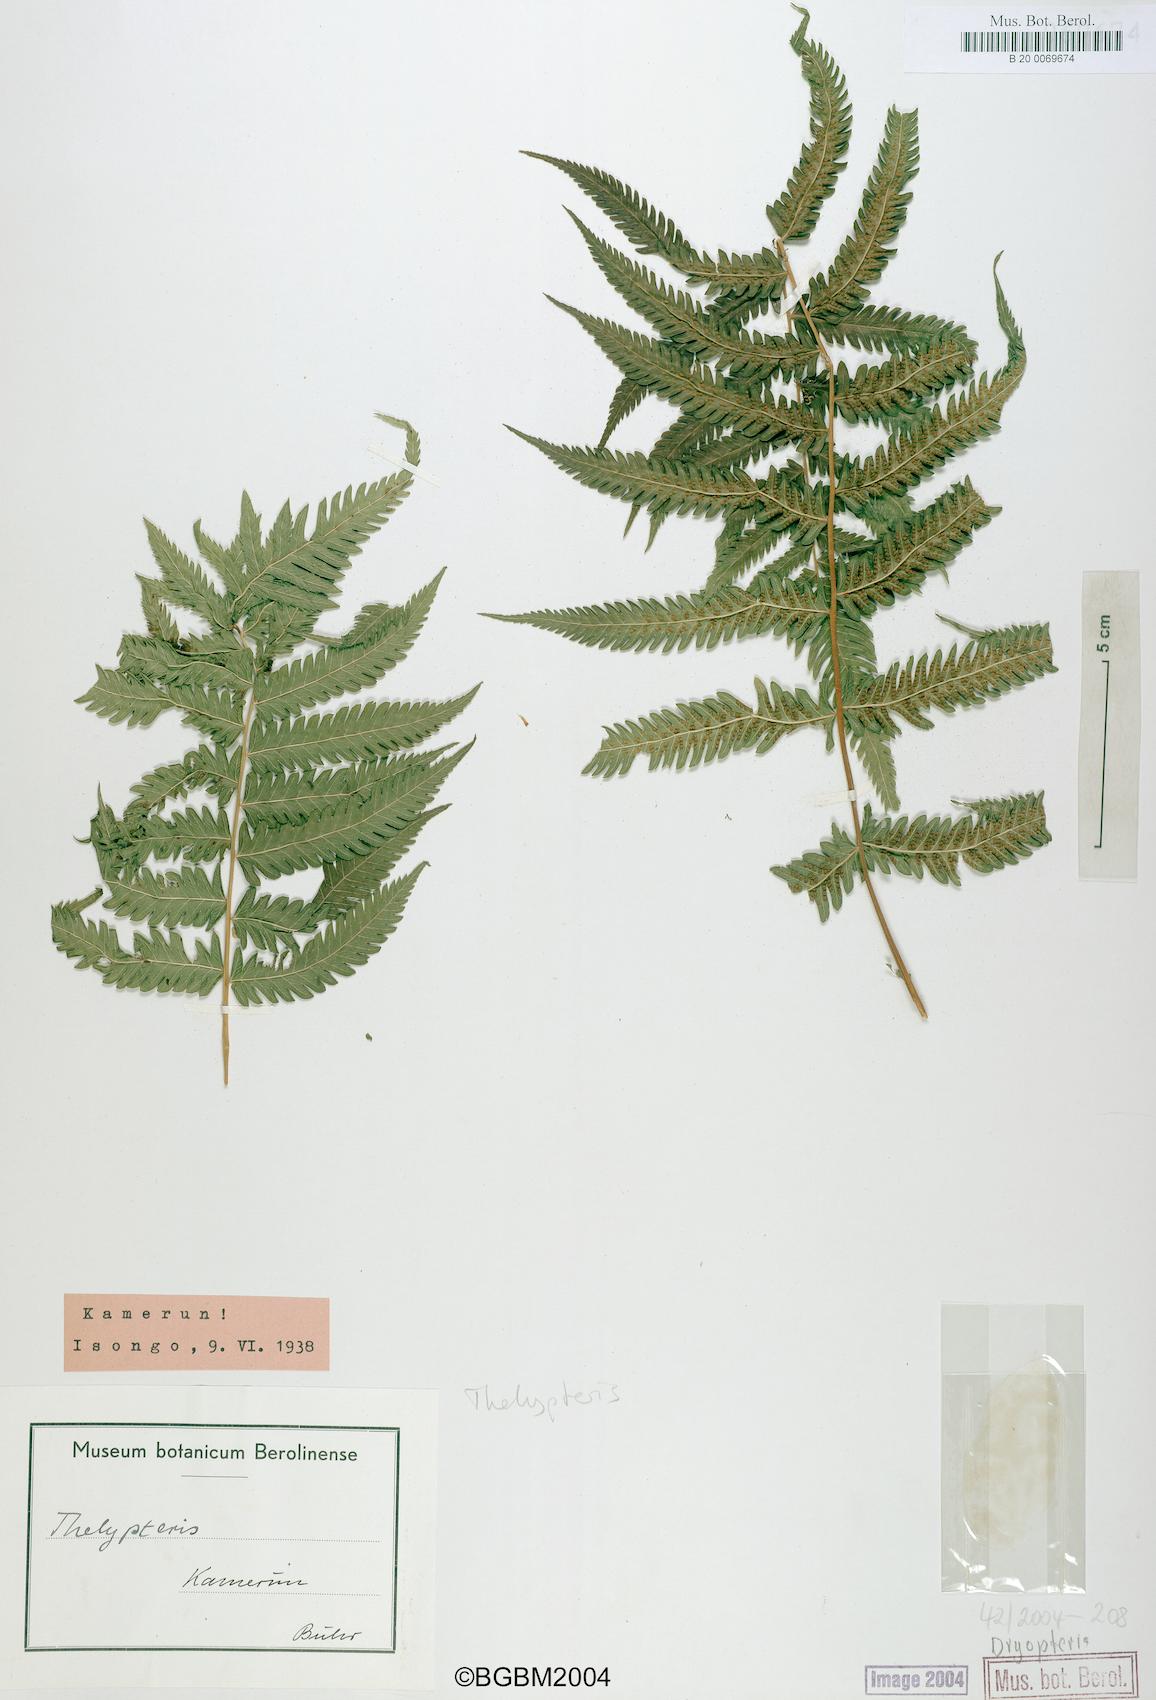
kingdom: Plantae
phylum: Tracheophyta
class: Polypodiopsida
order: Polypodiales
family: Dryopteridaceae
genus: Dryopteris
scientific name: Dryopteris
